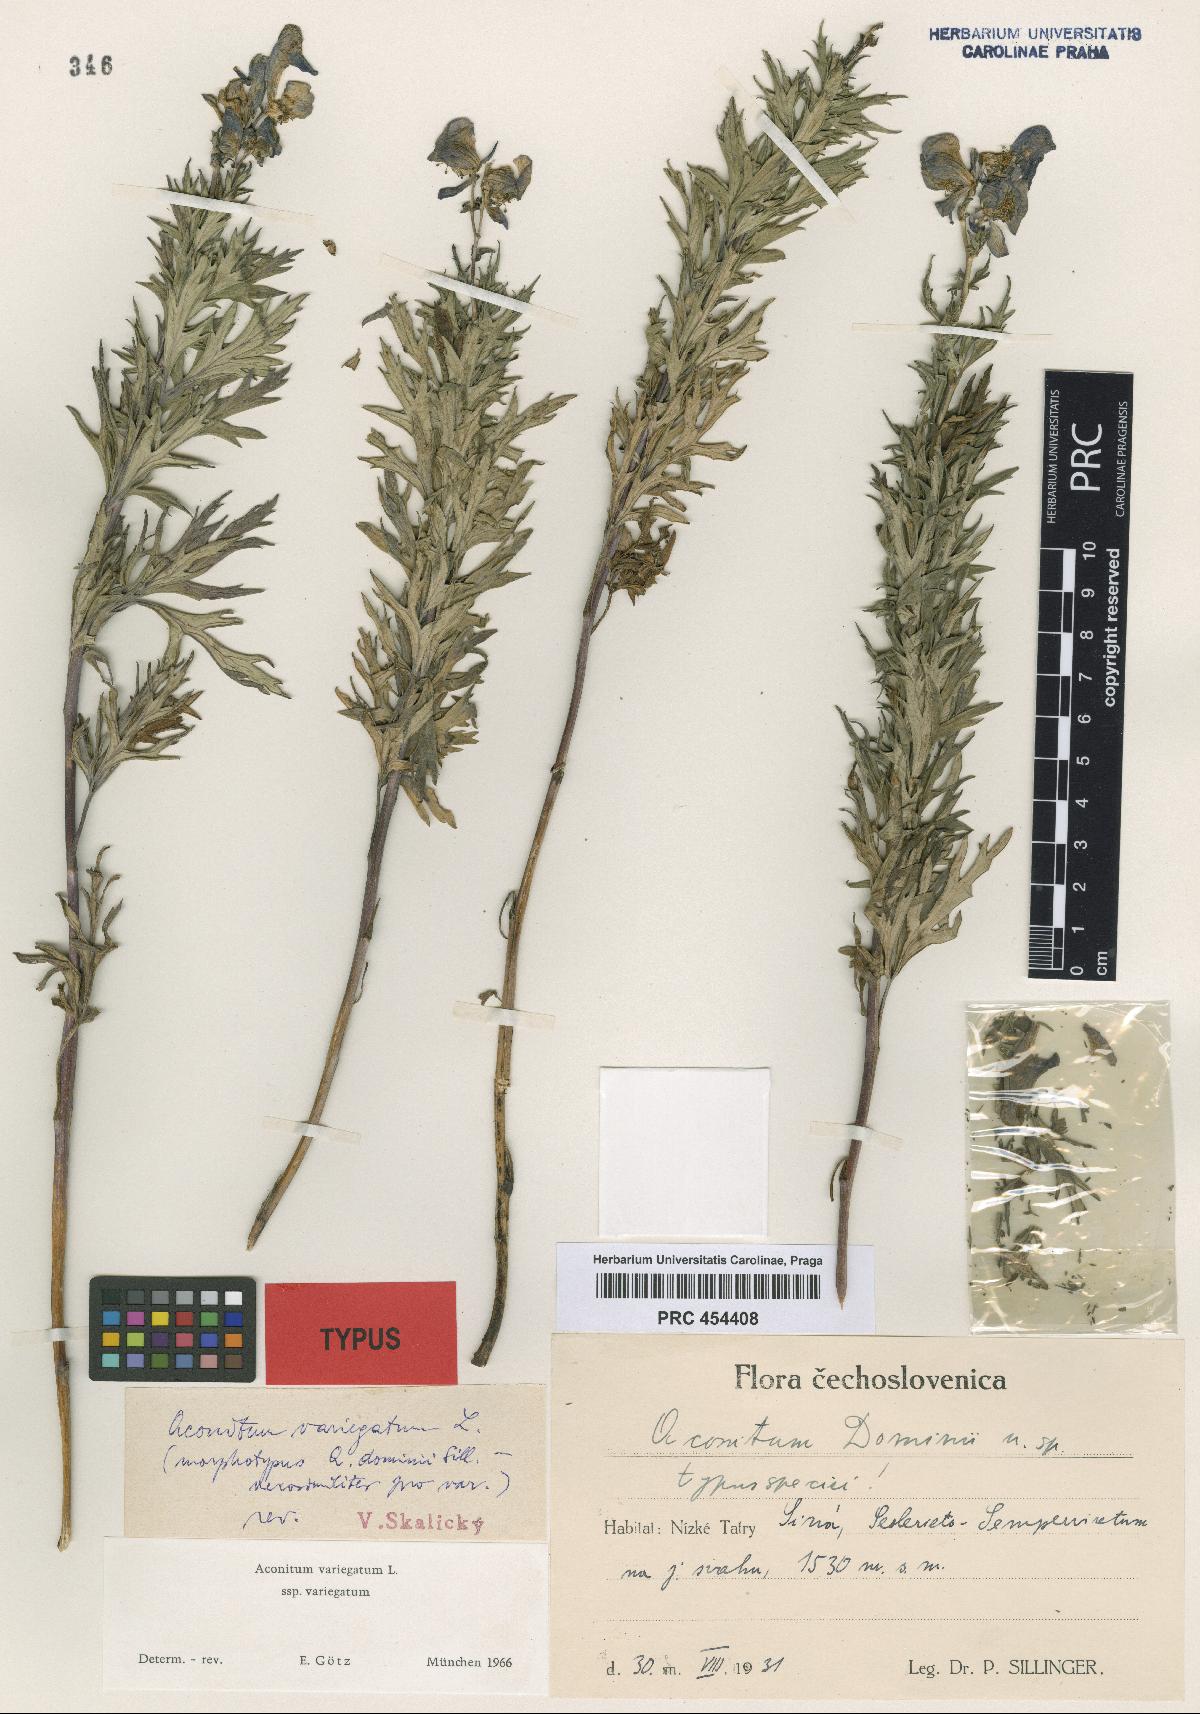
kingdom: Plantae
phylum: Tracheophyta
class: Magnoliopsida
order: Ranunculales
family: Ranunculaceae
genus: Aconitum
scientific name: Aconitum variegatum
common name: Manchurian monkshood
